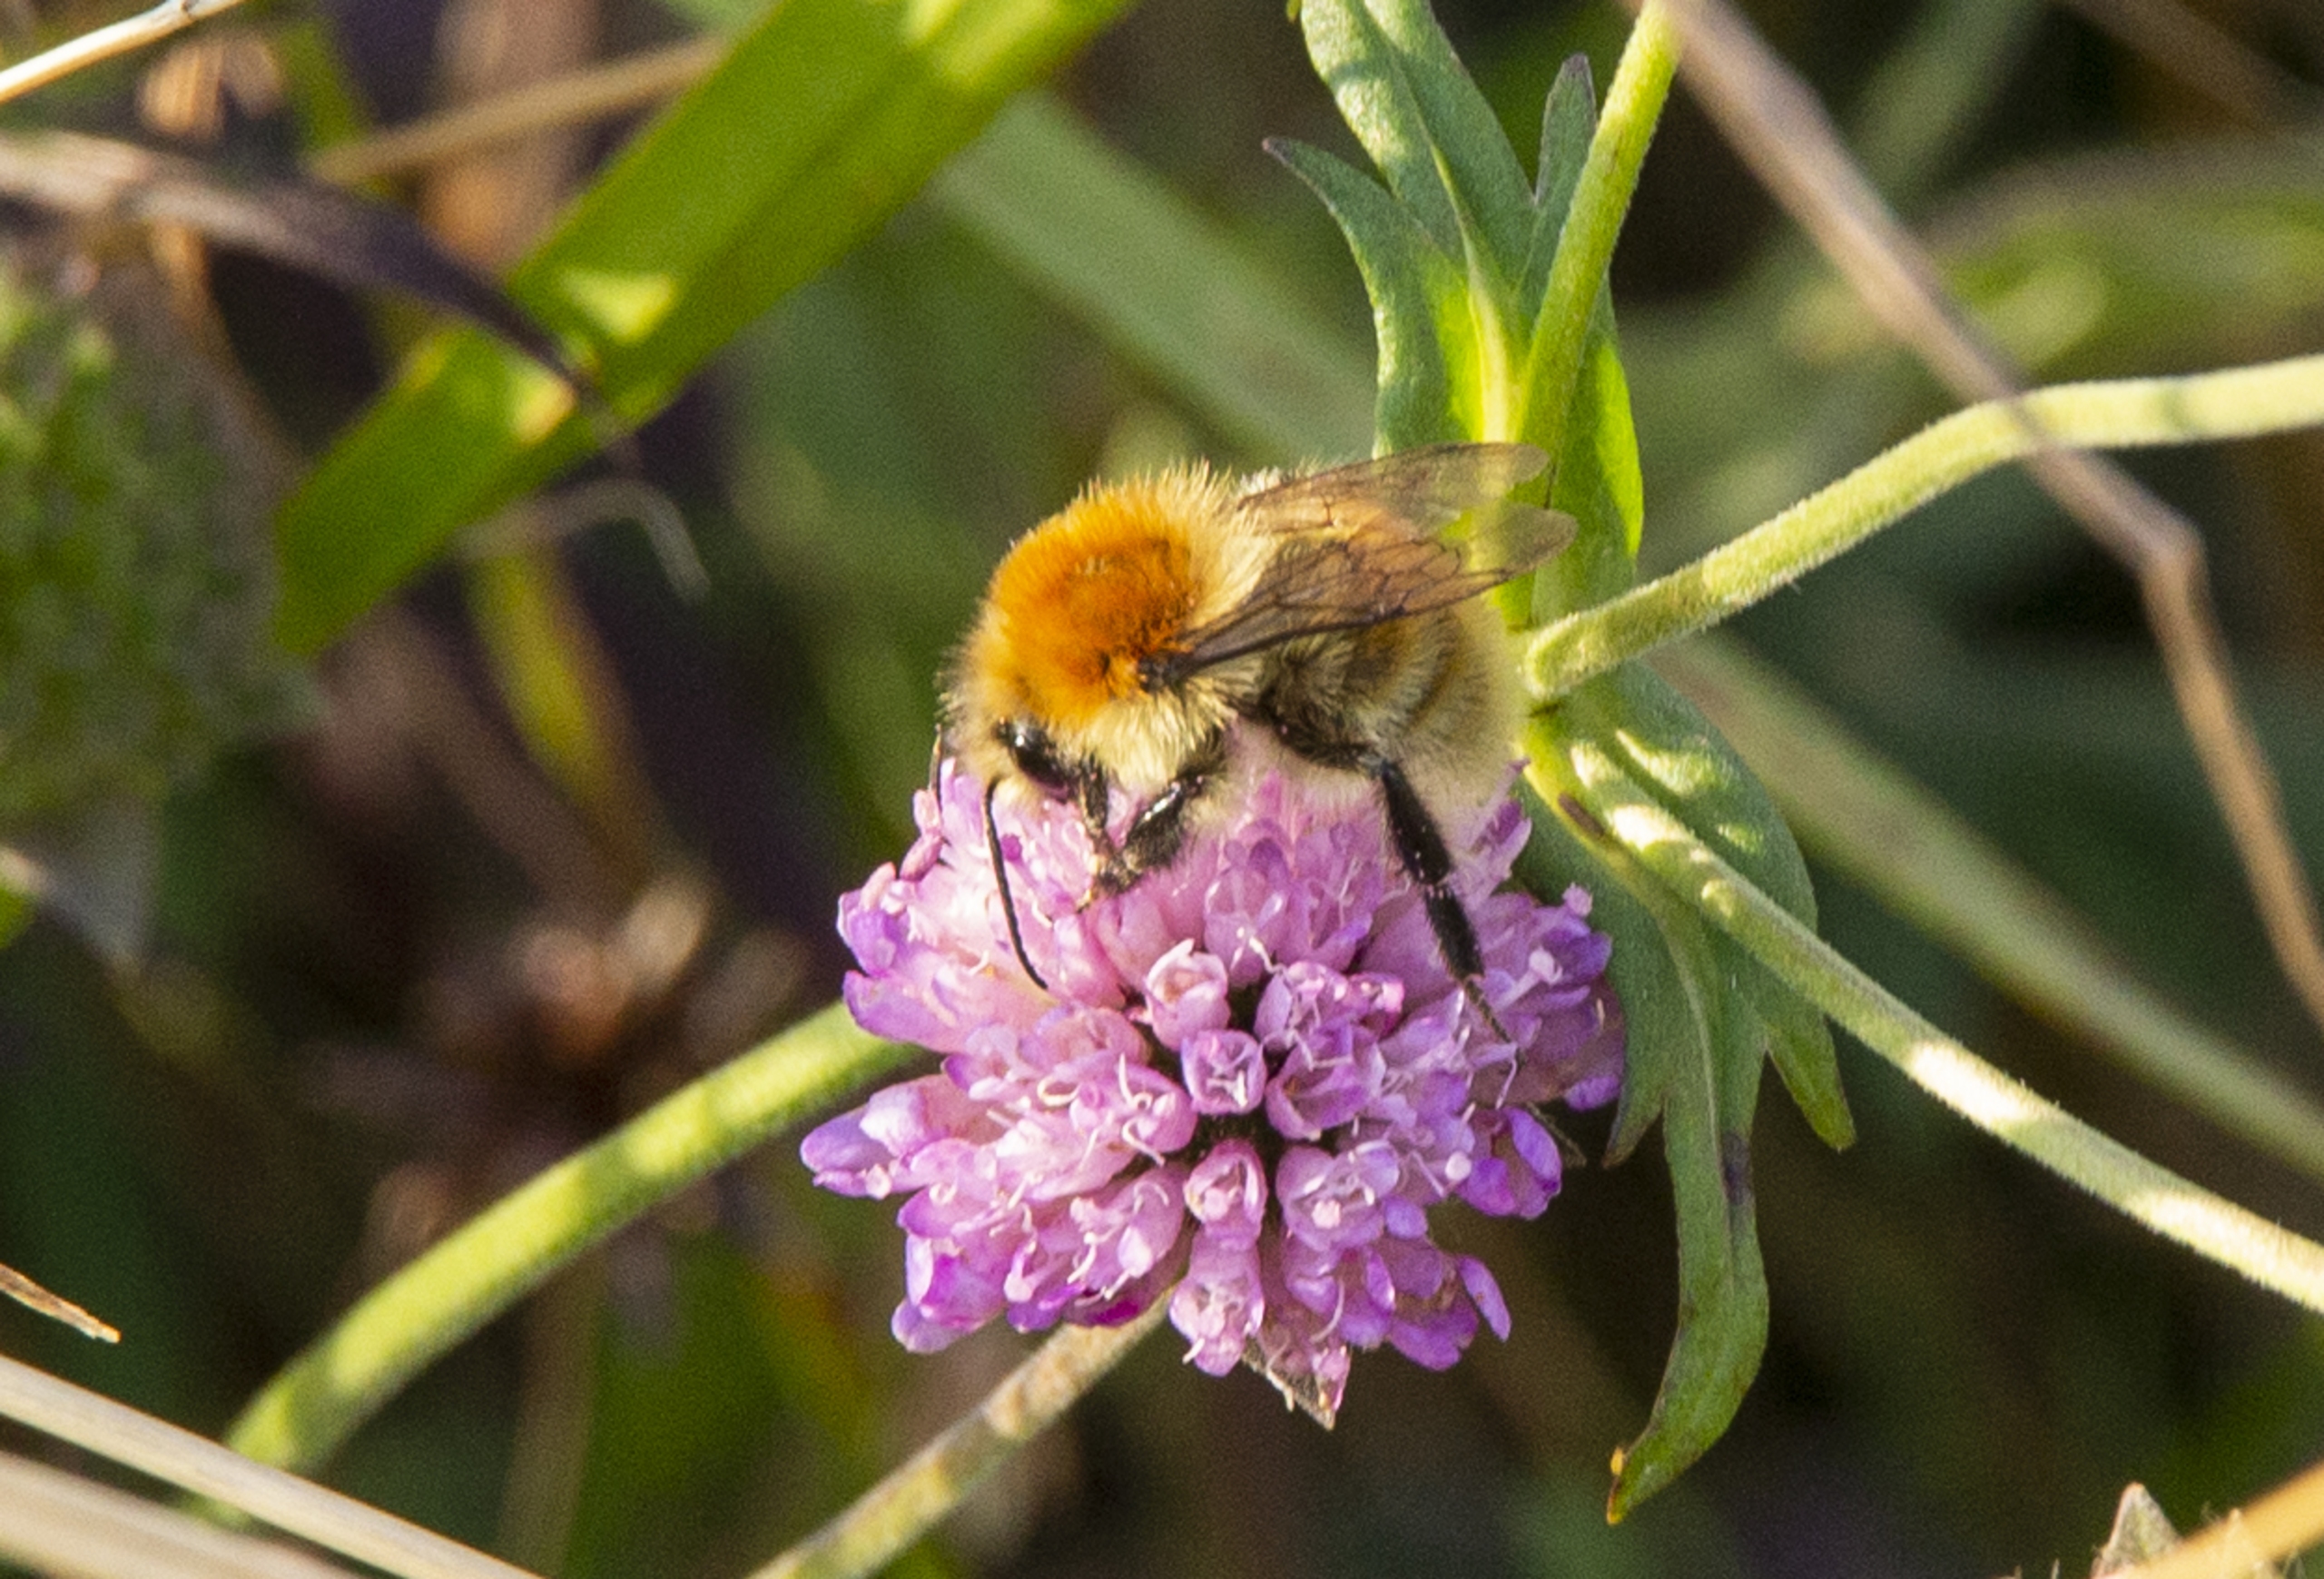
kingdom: Animalia
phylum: Arthropoda
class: Insecta
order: Hymenoptera
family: Apidae
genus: Bombus
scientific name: Bombus muscorum
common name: Moshumle
